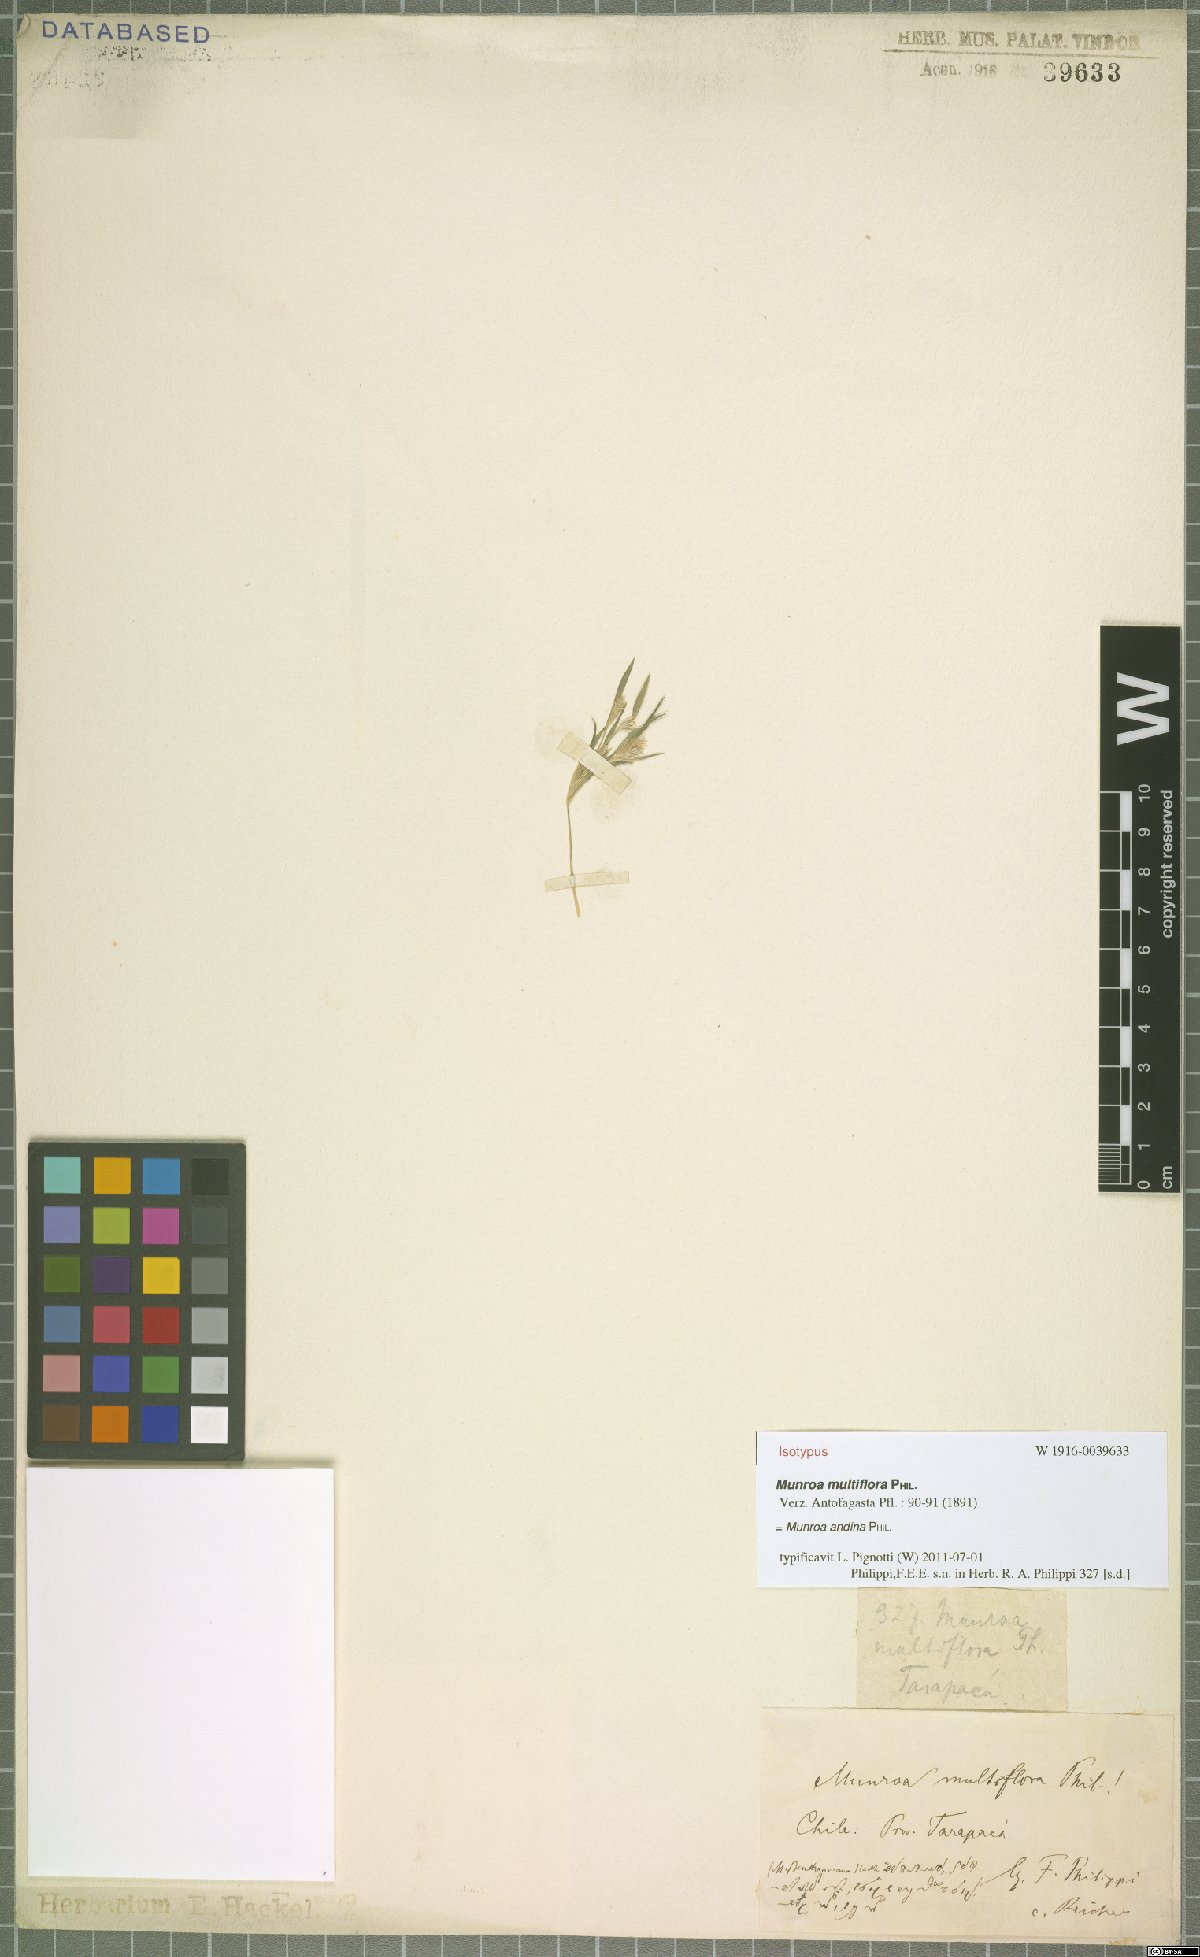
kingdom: Plantae
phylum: Tracheophyta
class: Liliopsida
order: Poales
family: Poaceae
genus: Munroa
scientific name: Munroa andina
